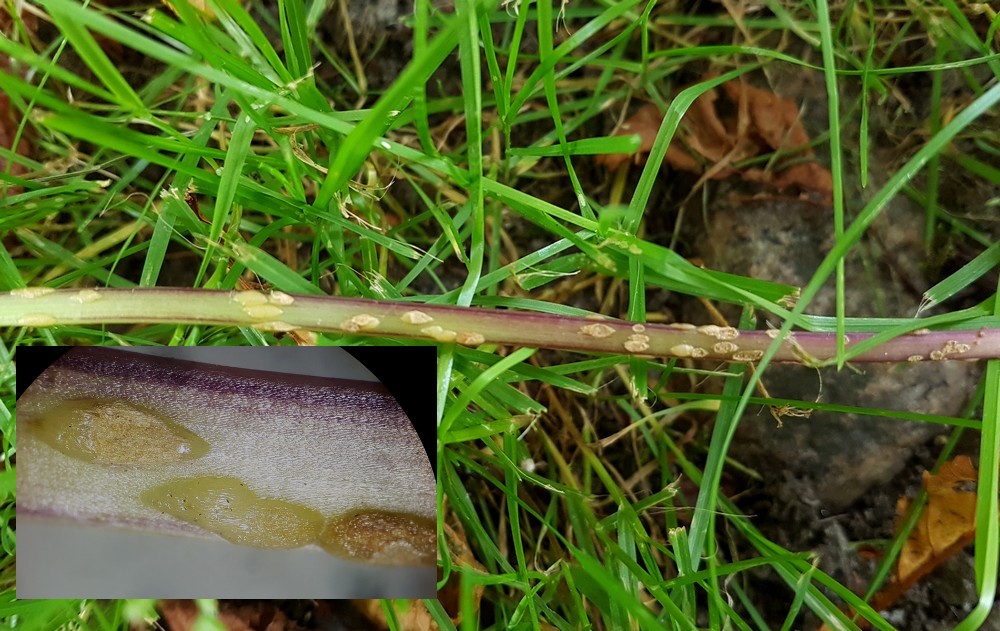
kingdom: Fungi
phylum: Ascomycota
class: Taphrinomycetes
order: Taphrinales
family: Taphrinaceae
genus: Protomyces
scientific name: Protomyces macrosporus
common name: skvalderkål-vablesæk
